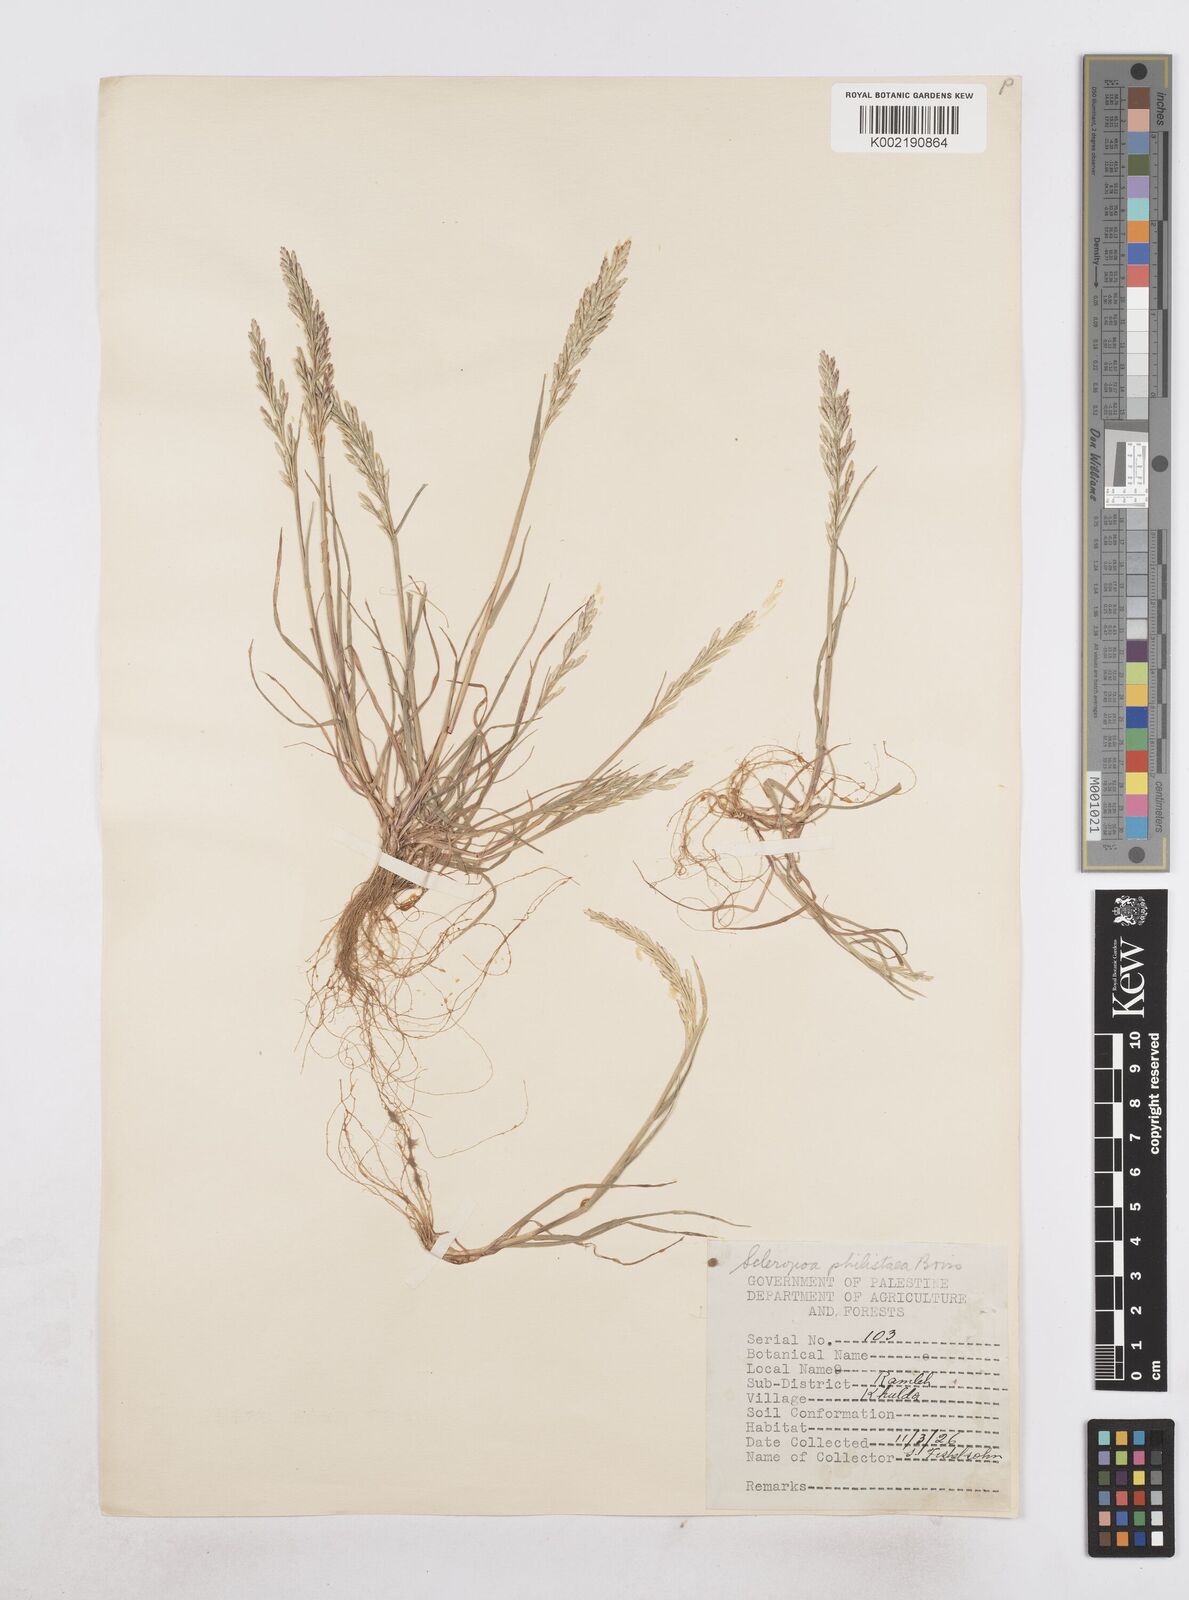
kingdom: Plantae
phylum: Tracheophyta
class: Liliopsida
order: Poales
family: Poaceae
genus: Desmazeria
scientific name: Desmazeria philistaea
